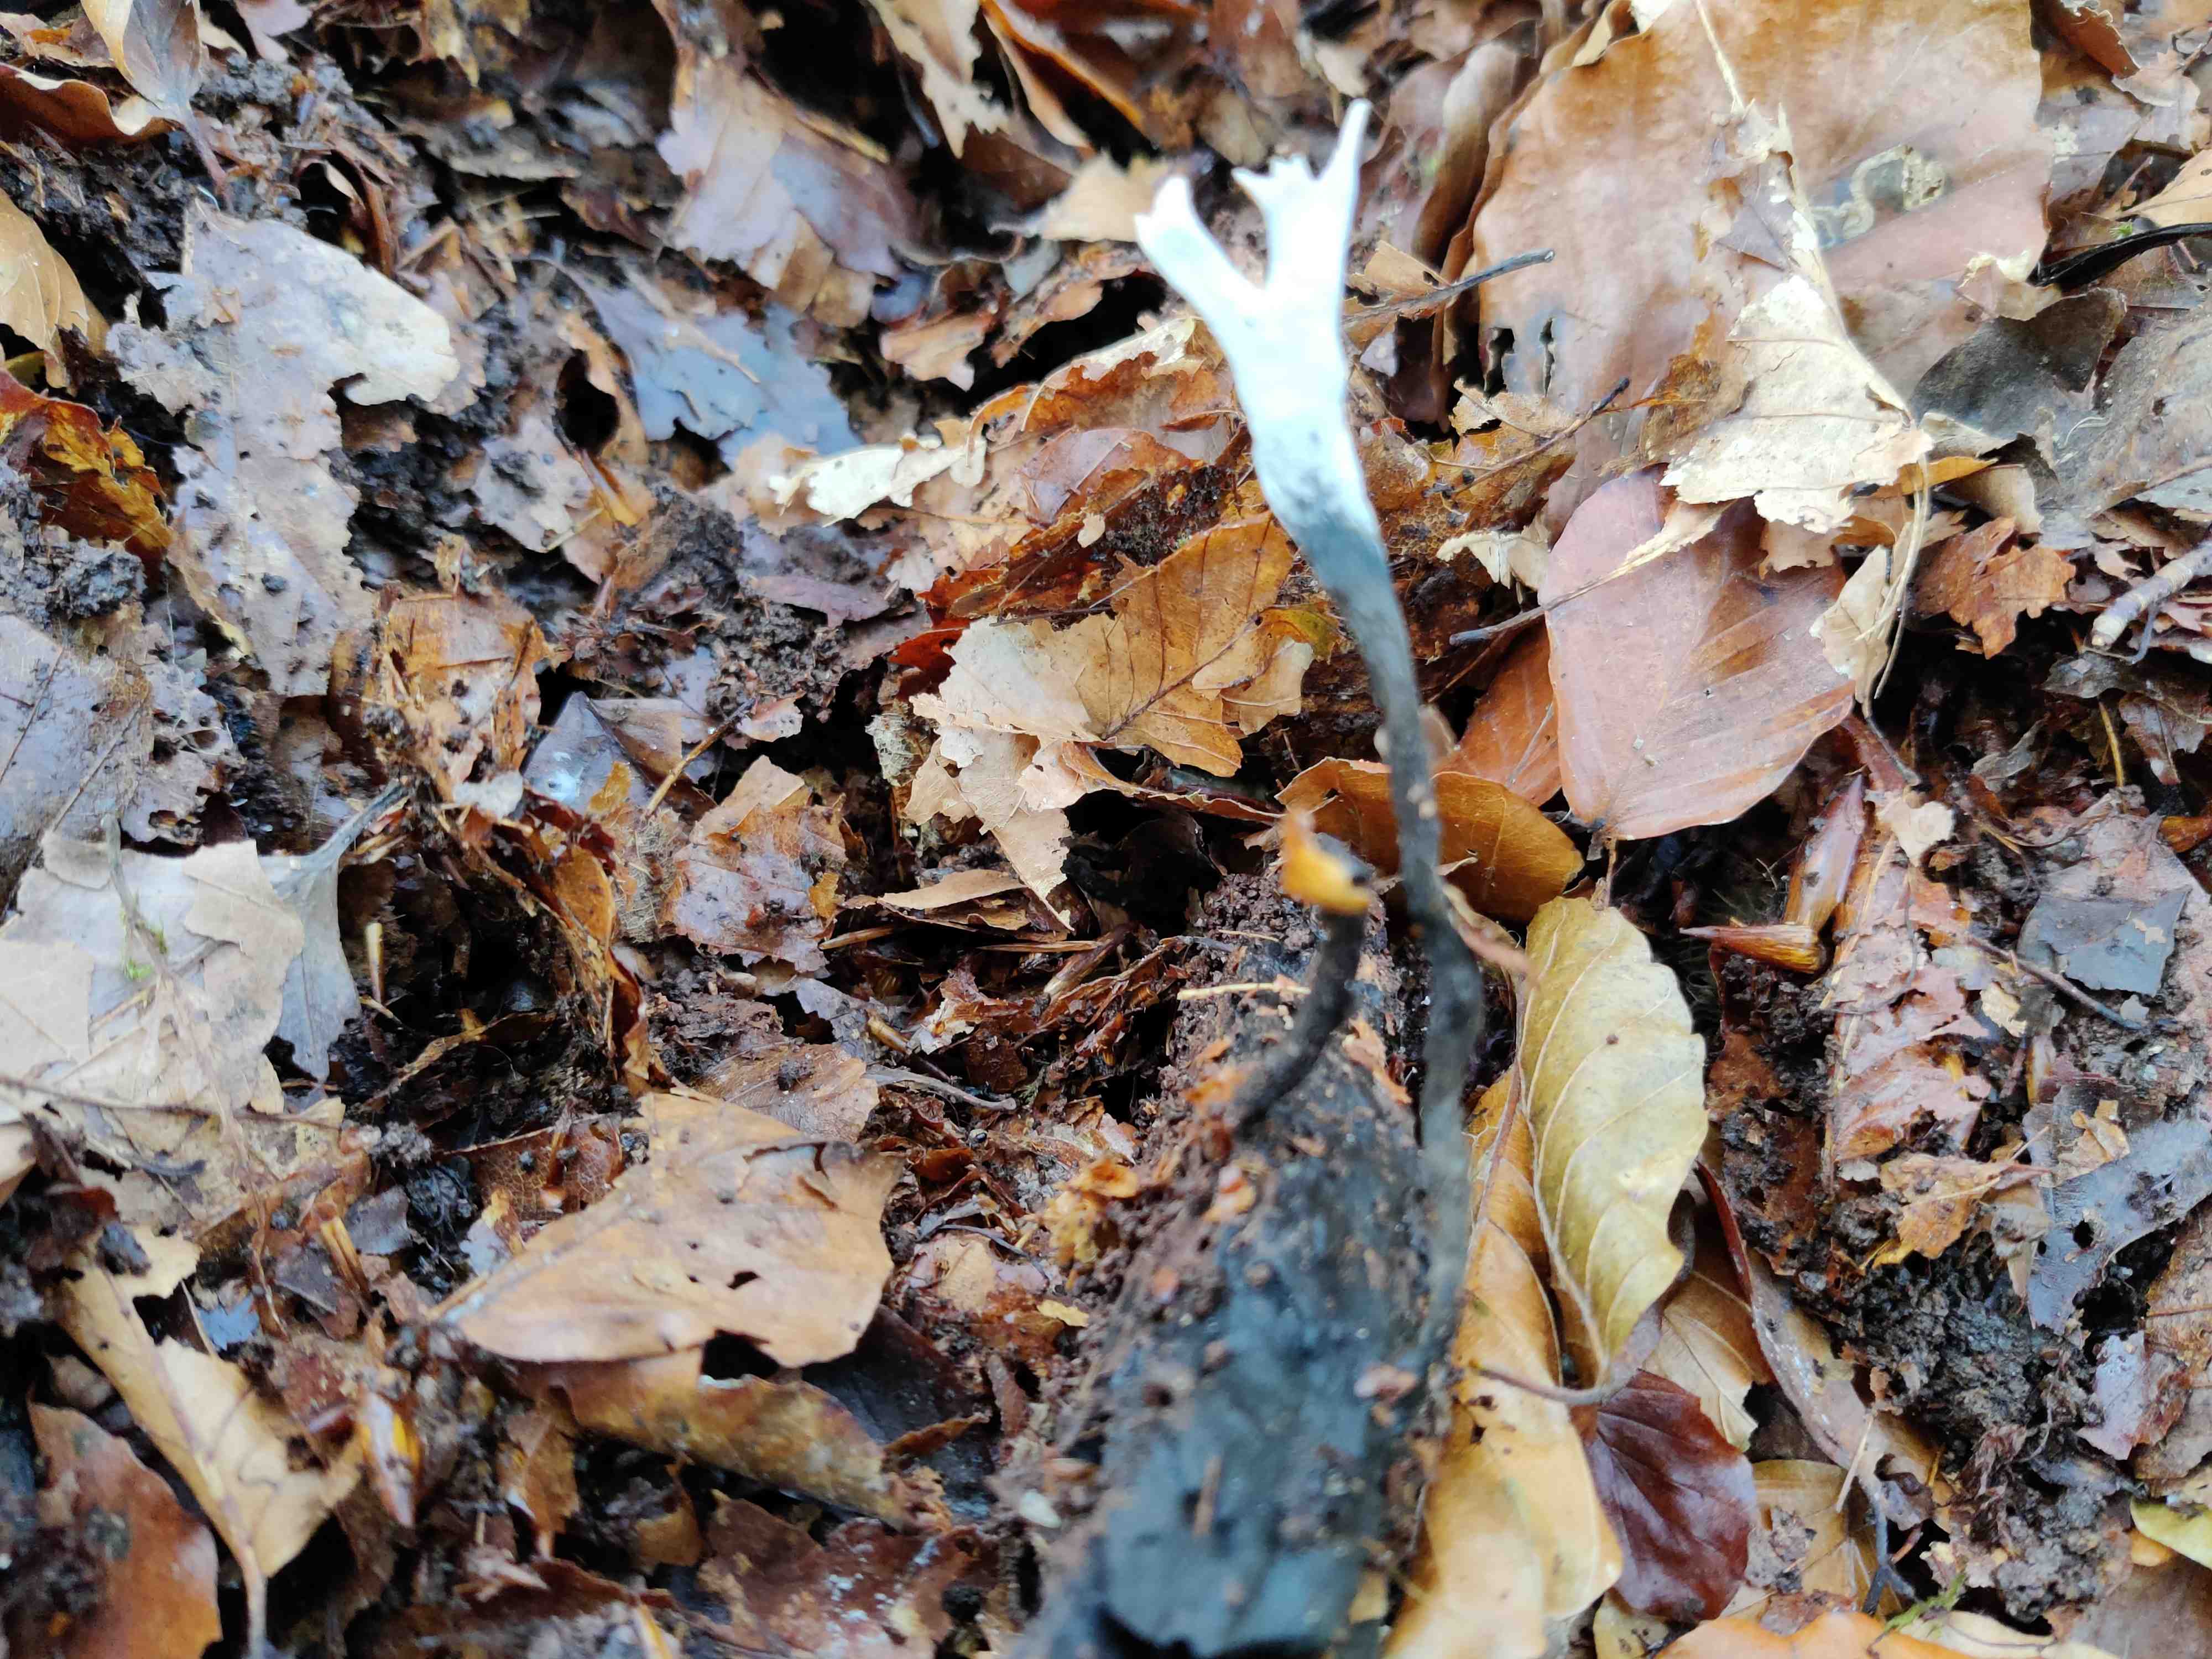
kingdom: Fungi
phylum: Ascomycota
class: Sordariomycetes
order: Xylariales
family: Xylariaceae
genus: Xylaria
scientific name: Xylaria hypoxylon
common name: grenet stødsvamp
